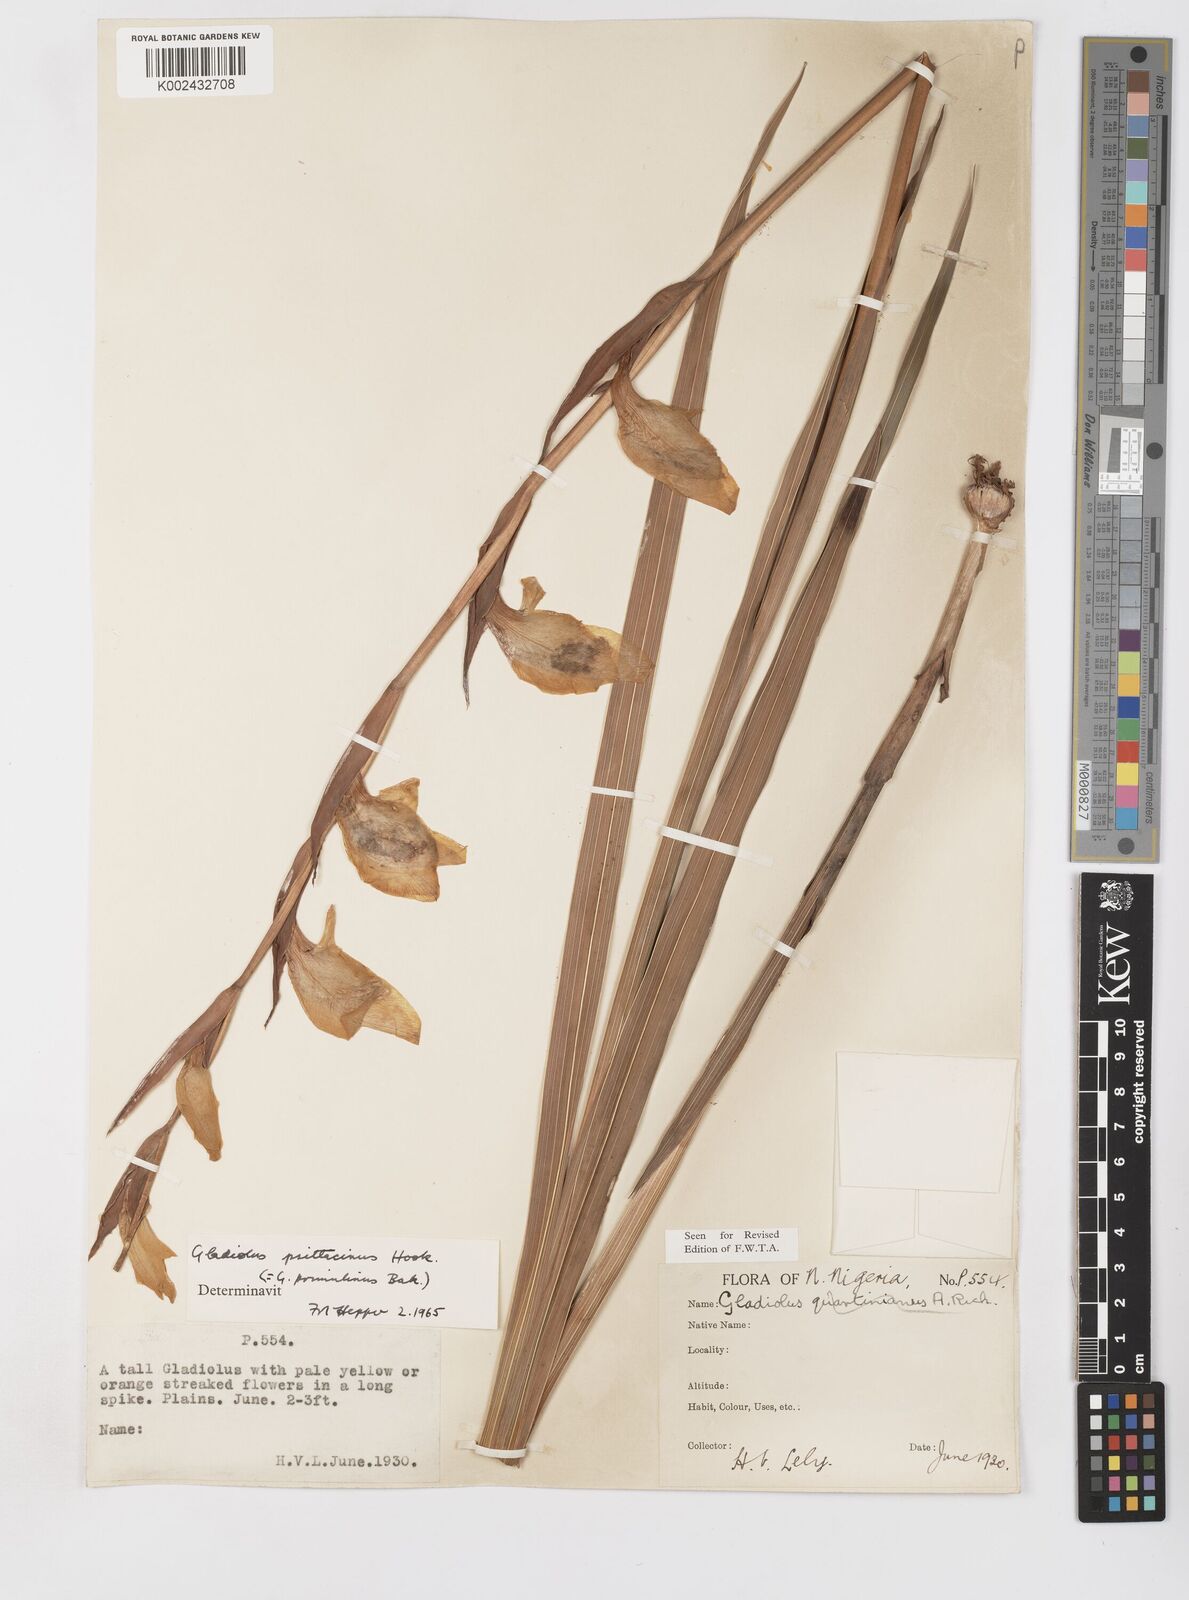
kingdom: Plantae
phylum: Tracheophyta
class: Liliopsida
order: Asparagales
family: Iridaceae
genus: Gladiolus
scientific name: Gladiolus dalenii
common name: Cornflag
